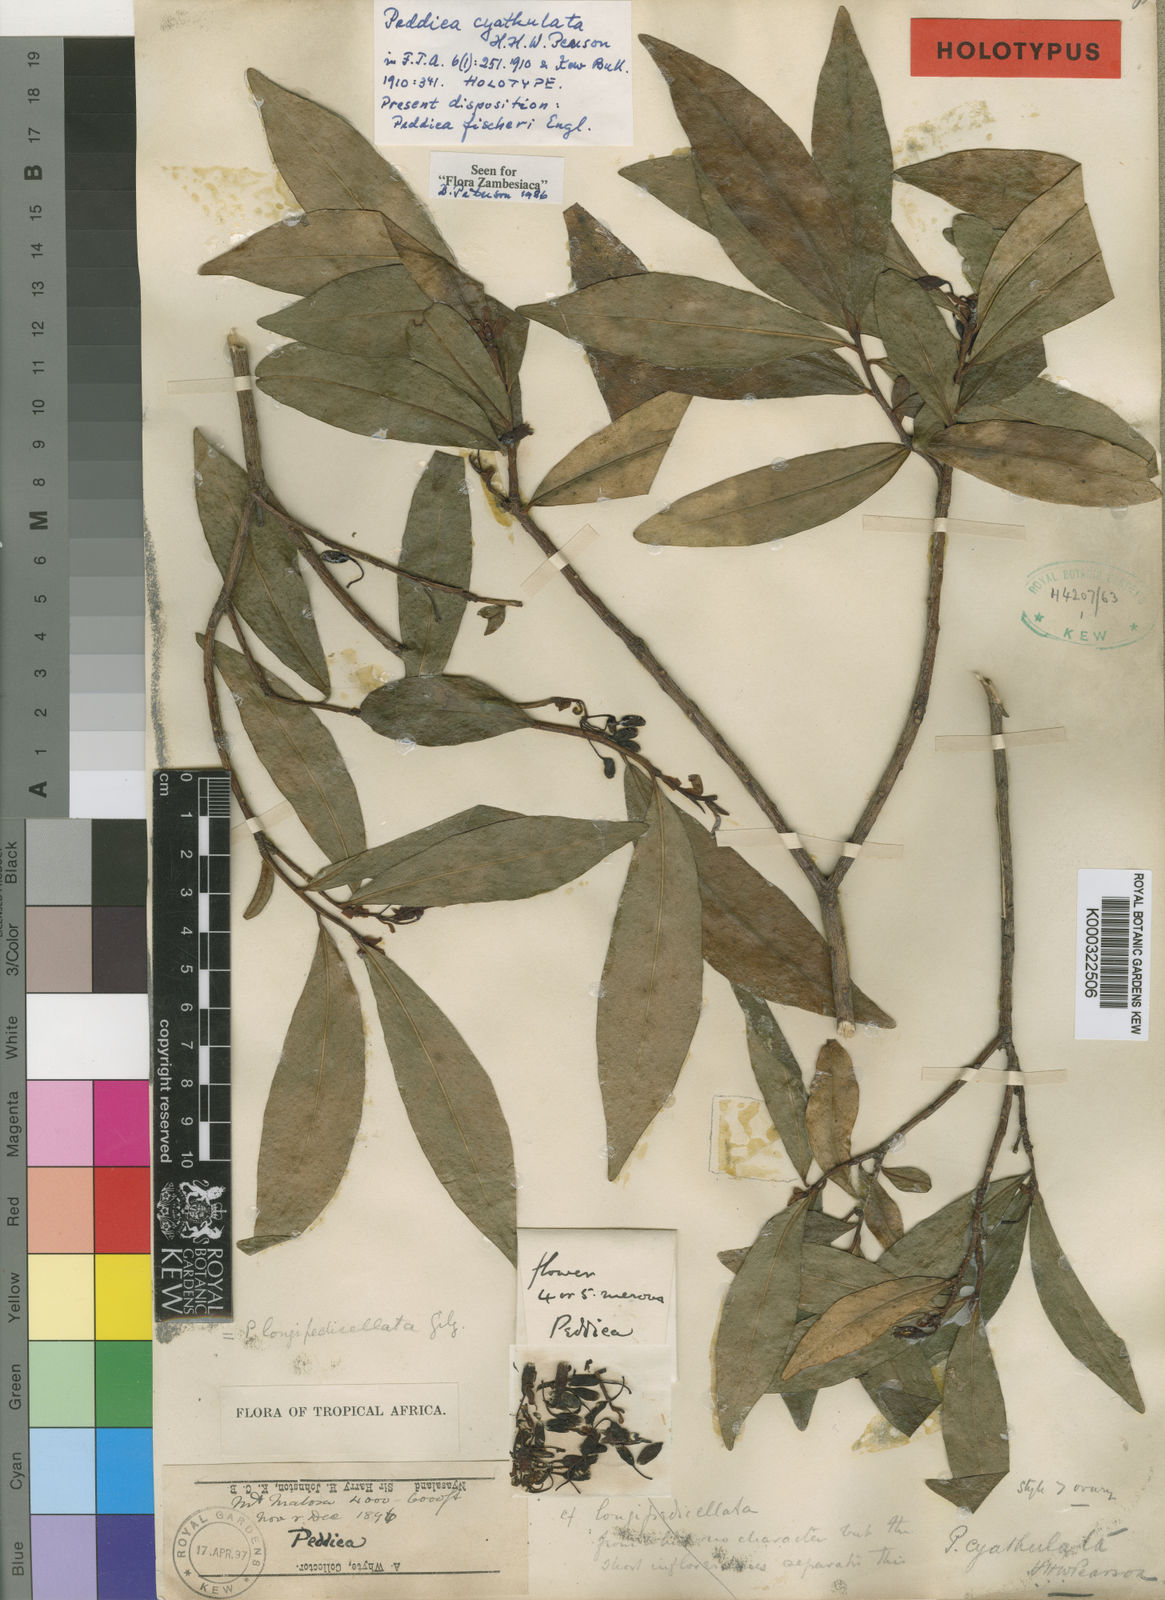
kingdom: Plantae
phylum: Tracheophyta
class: Magnoliopsida
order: Malvales
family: Thymelaeaceae
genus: Peddiea
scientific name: Peddiea fischeri
